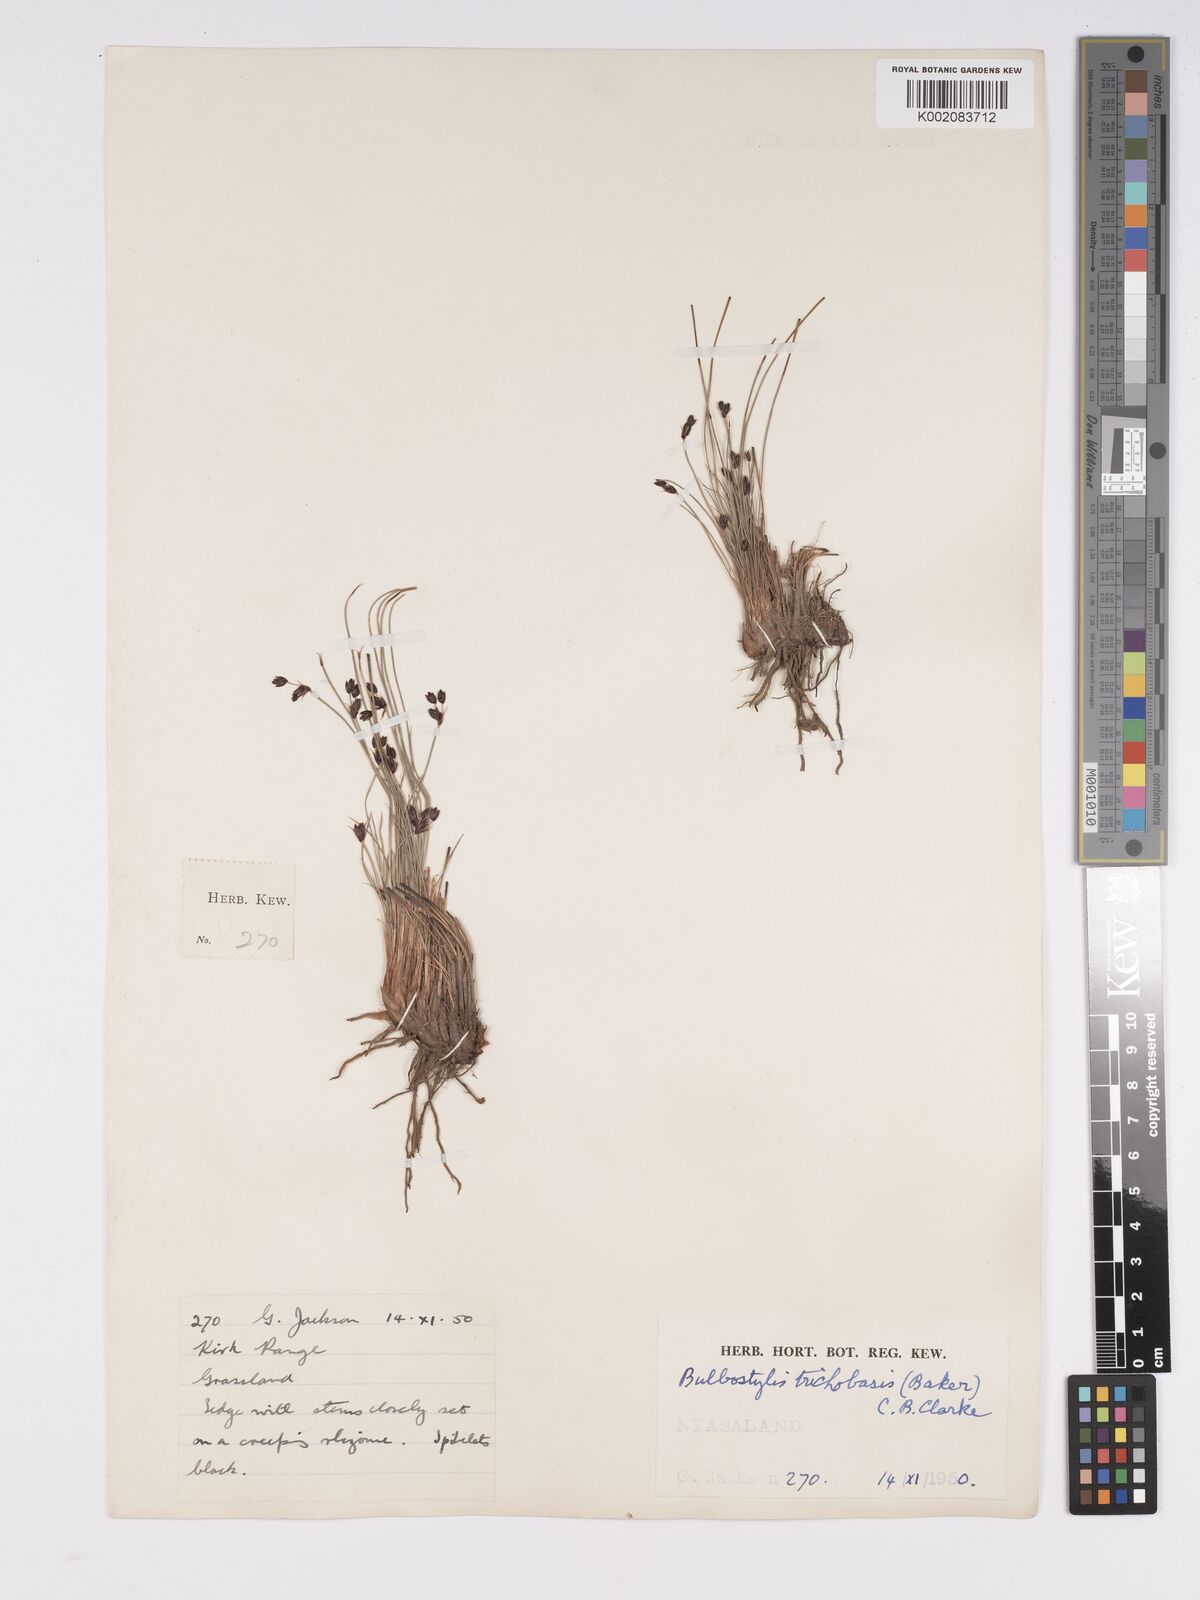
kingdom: Plantae
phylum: Tracheophyta
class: Liliopsida
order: Poales
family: Cyperaceae
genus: Bulbostylis
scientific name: Bulbostylis trichobasis
